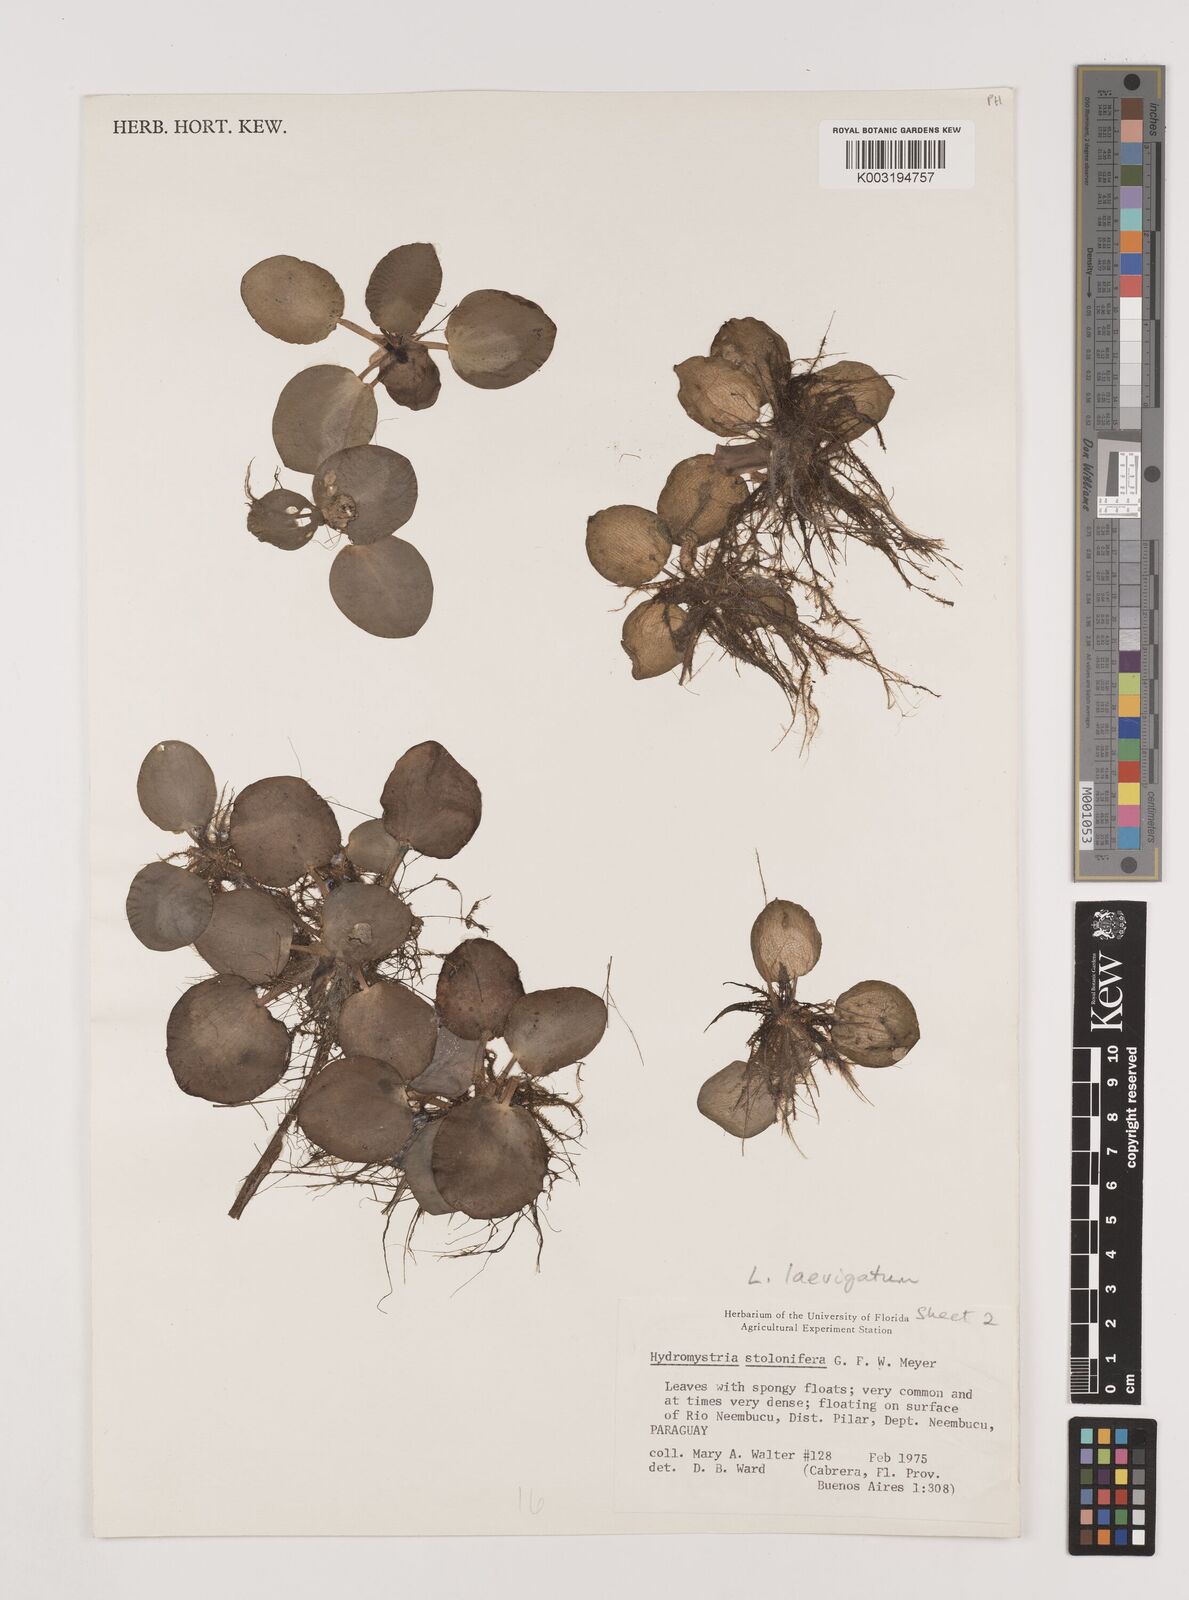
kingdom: Plantae
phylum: Tracheophyta
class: Liliopsida
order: Alismatales
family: Hydrocharitaceae
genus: Hydrocharis
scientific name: Hydrocharis laevigata
